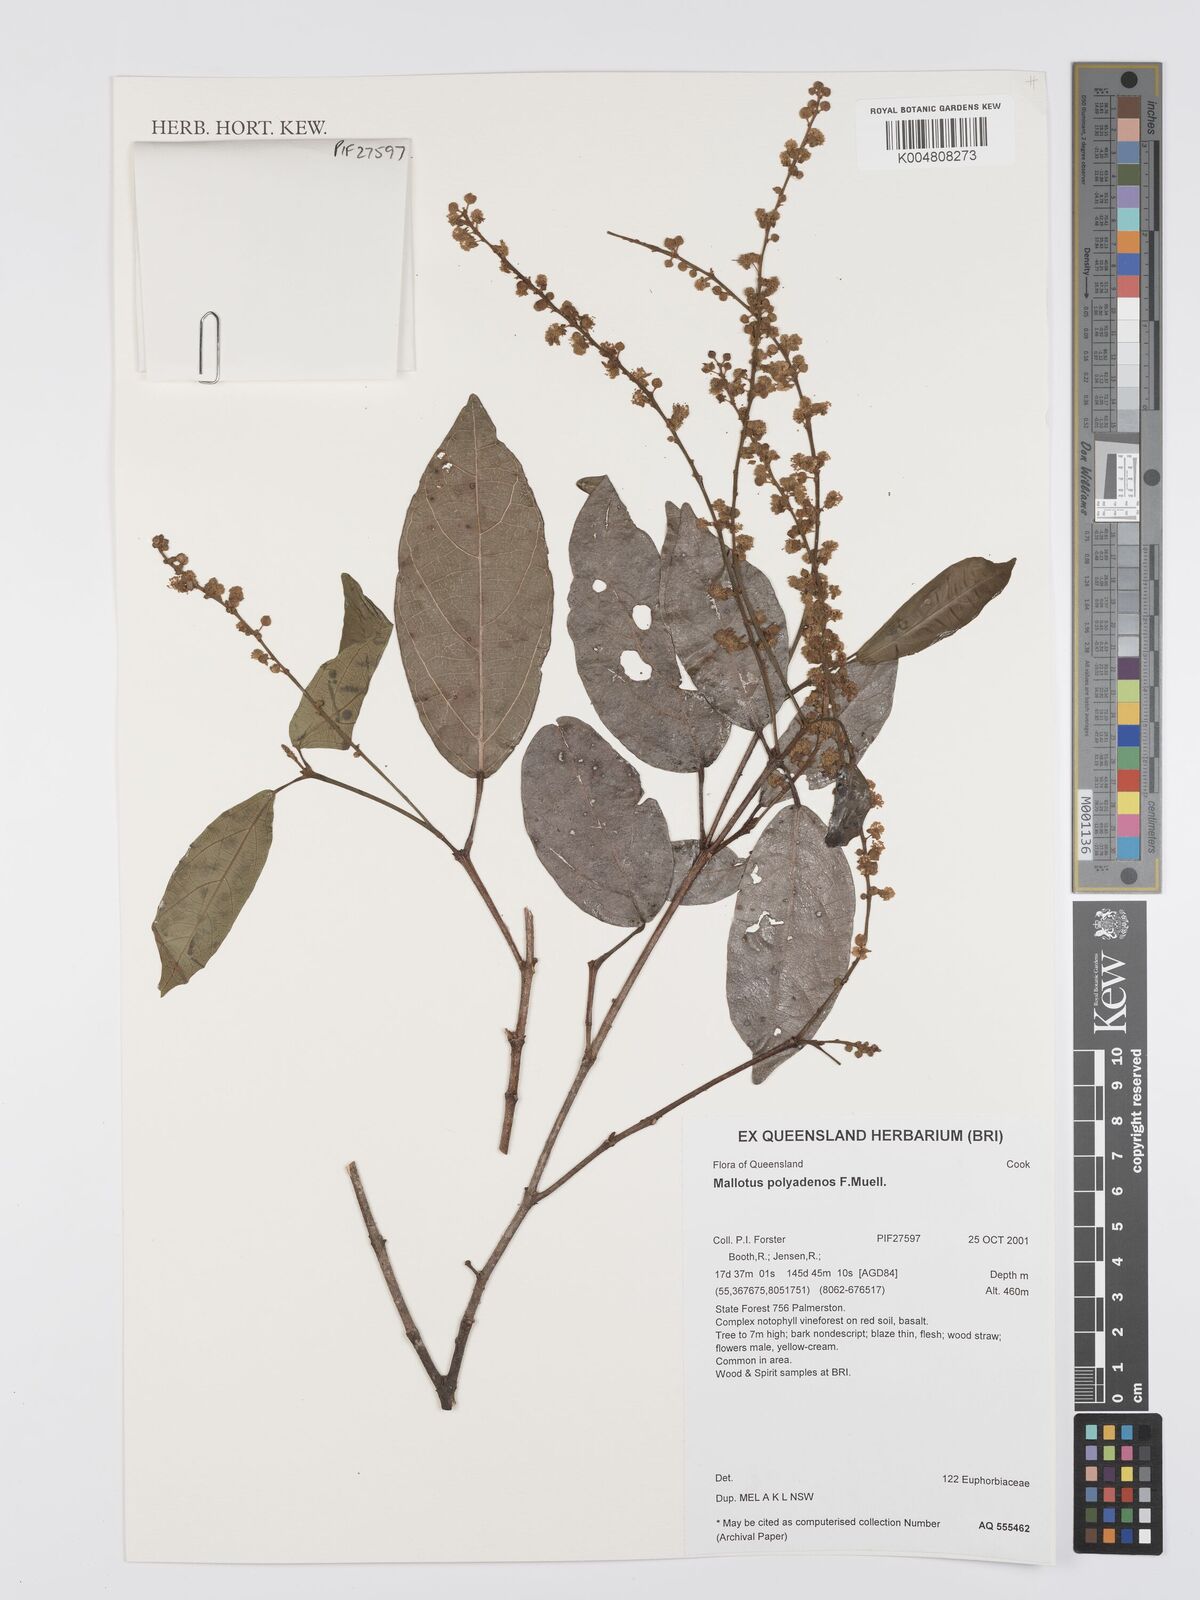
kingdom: Plantae
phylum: Tracheophyta
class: Magnoliopsida
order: Malpighiales
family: Euphorbiaceae
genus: Mallotus
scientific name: Mallotus polyadenos
